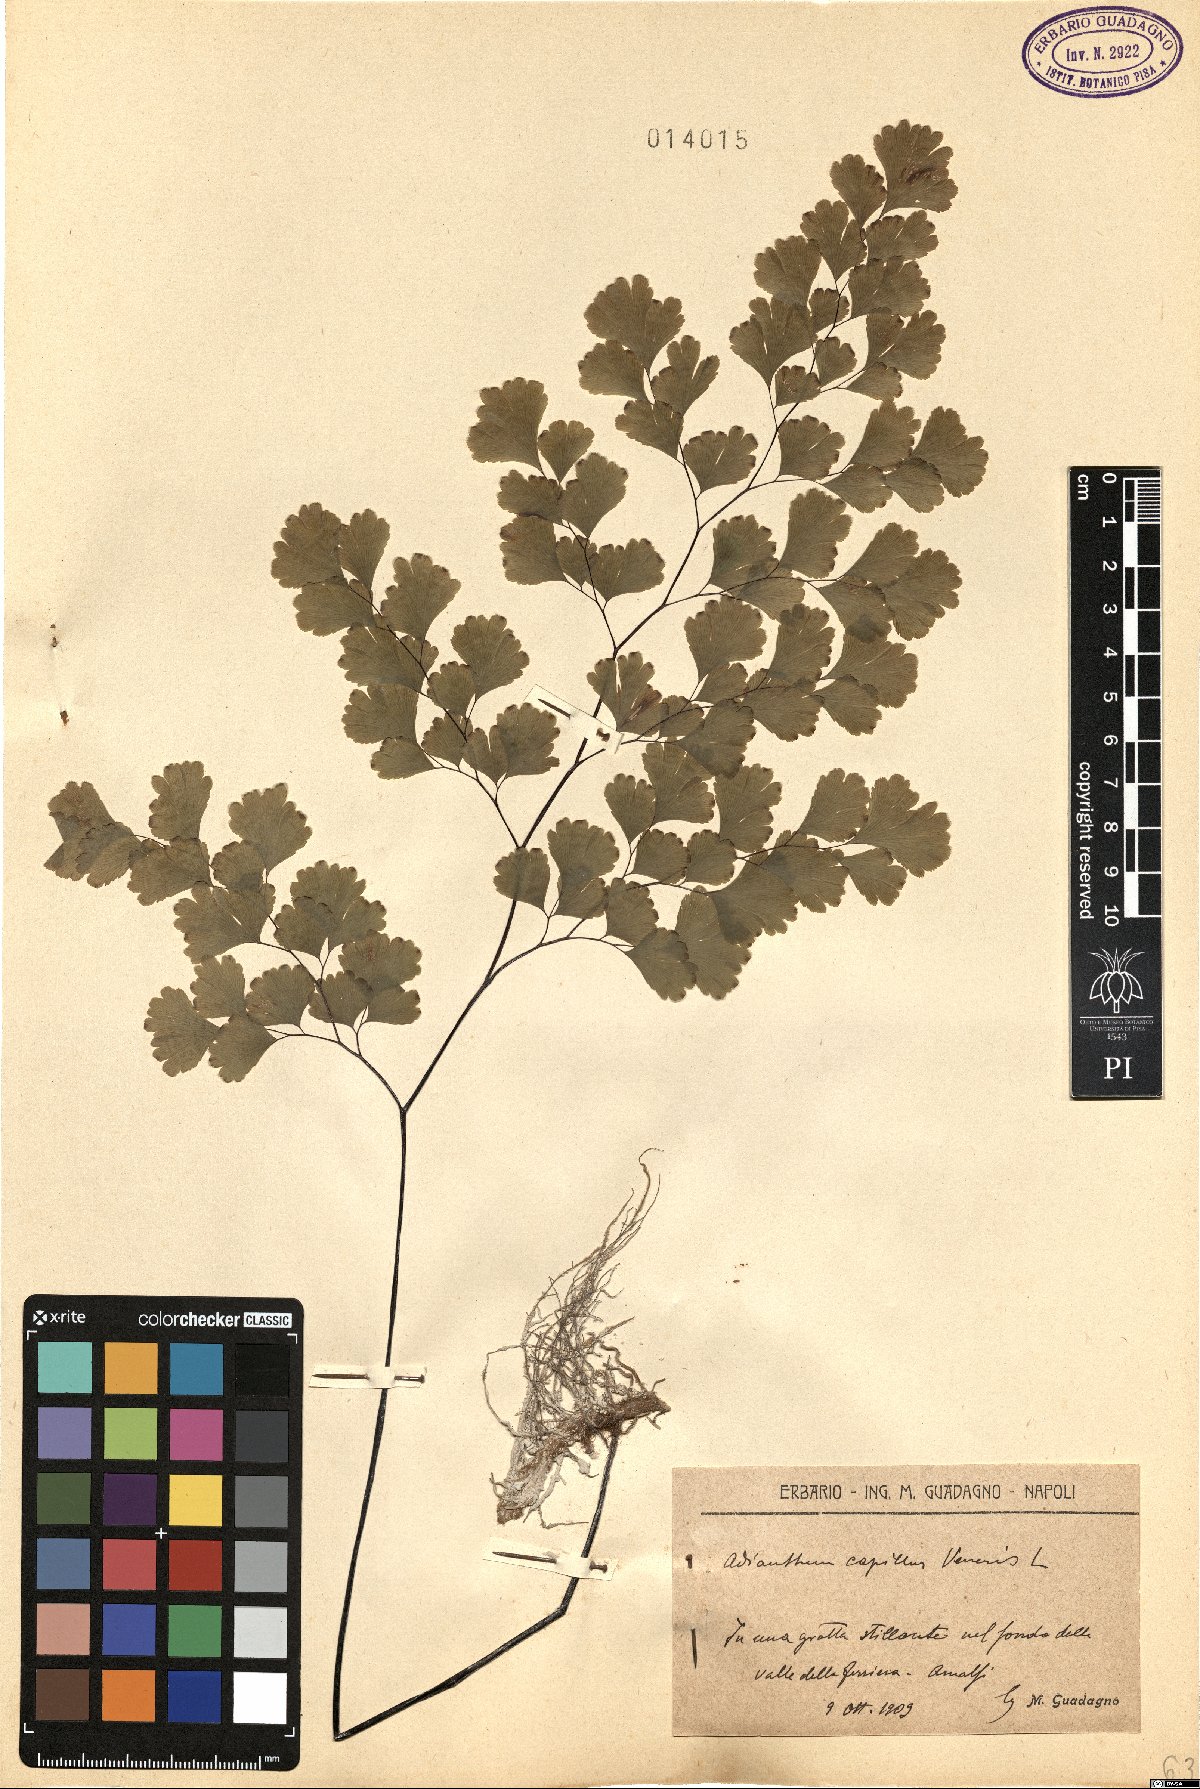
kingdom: Plantae
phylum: Tracheophyta
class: Polypodiopsida
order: Polypodiales
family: Pteridaceae
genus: Adiantum
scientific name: Adiantum capillus-veneris
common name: Maidenhair fern
